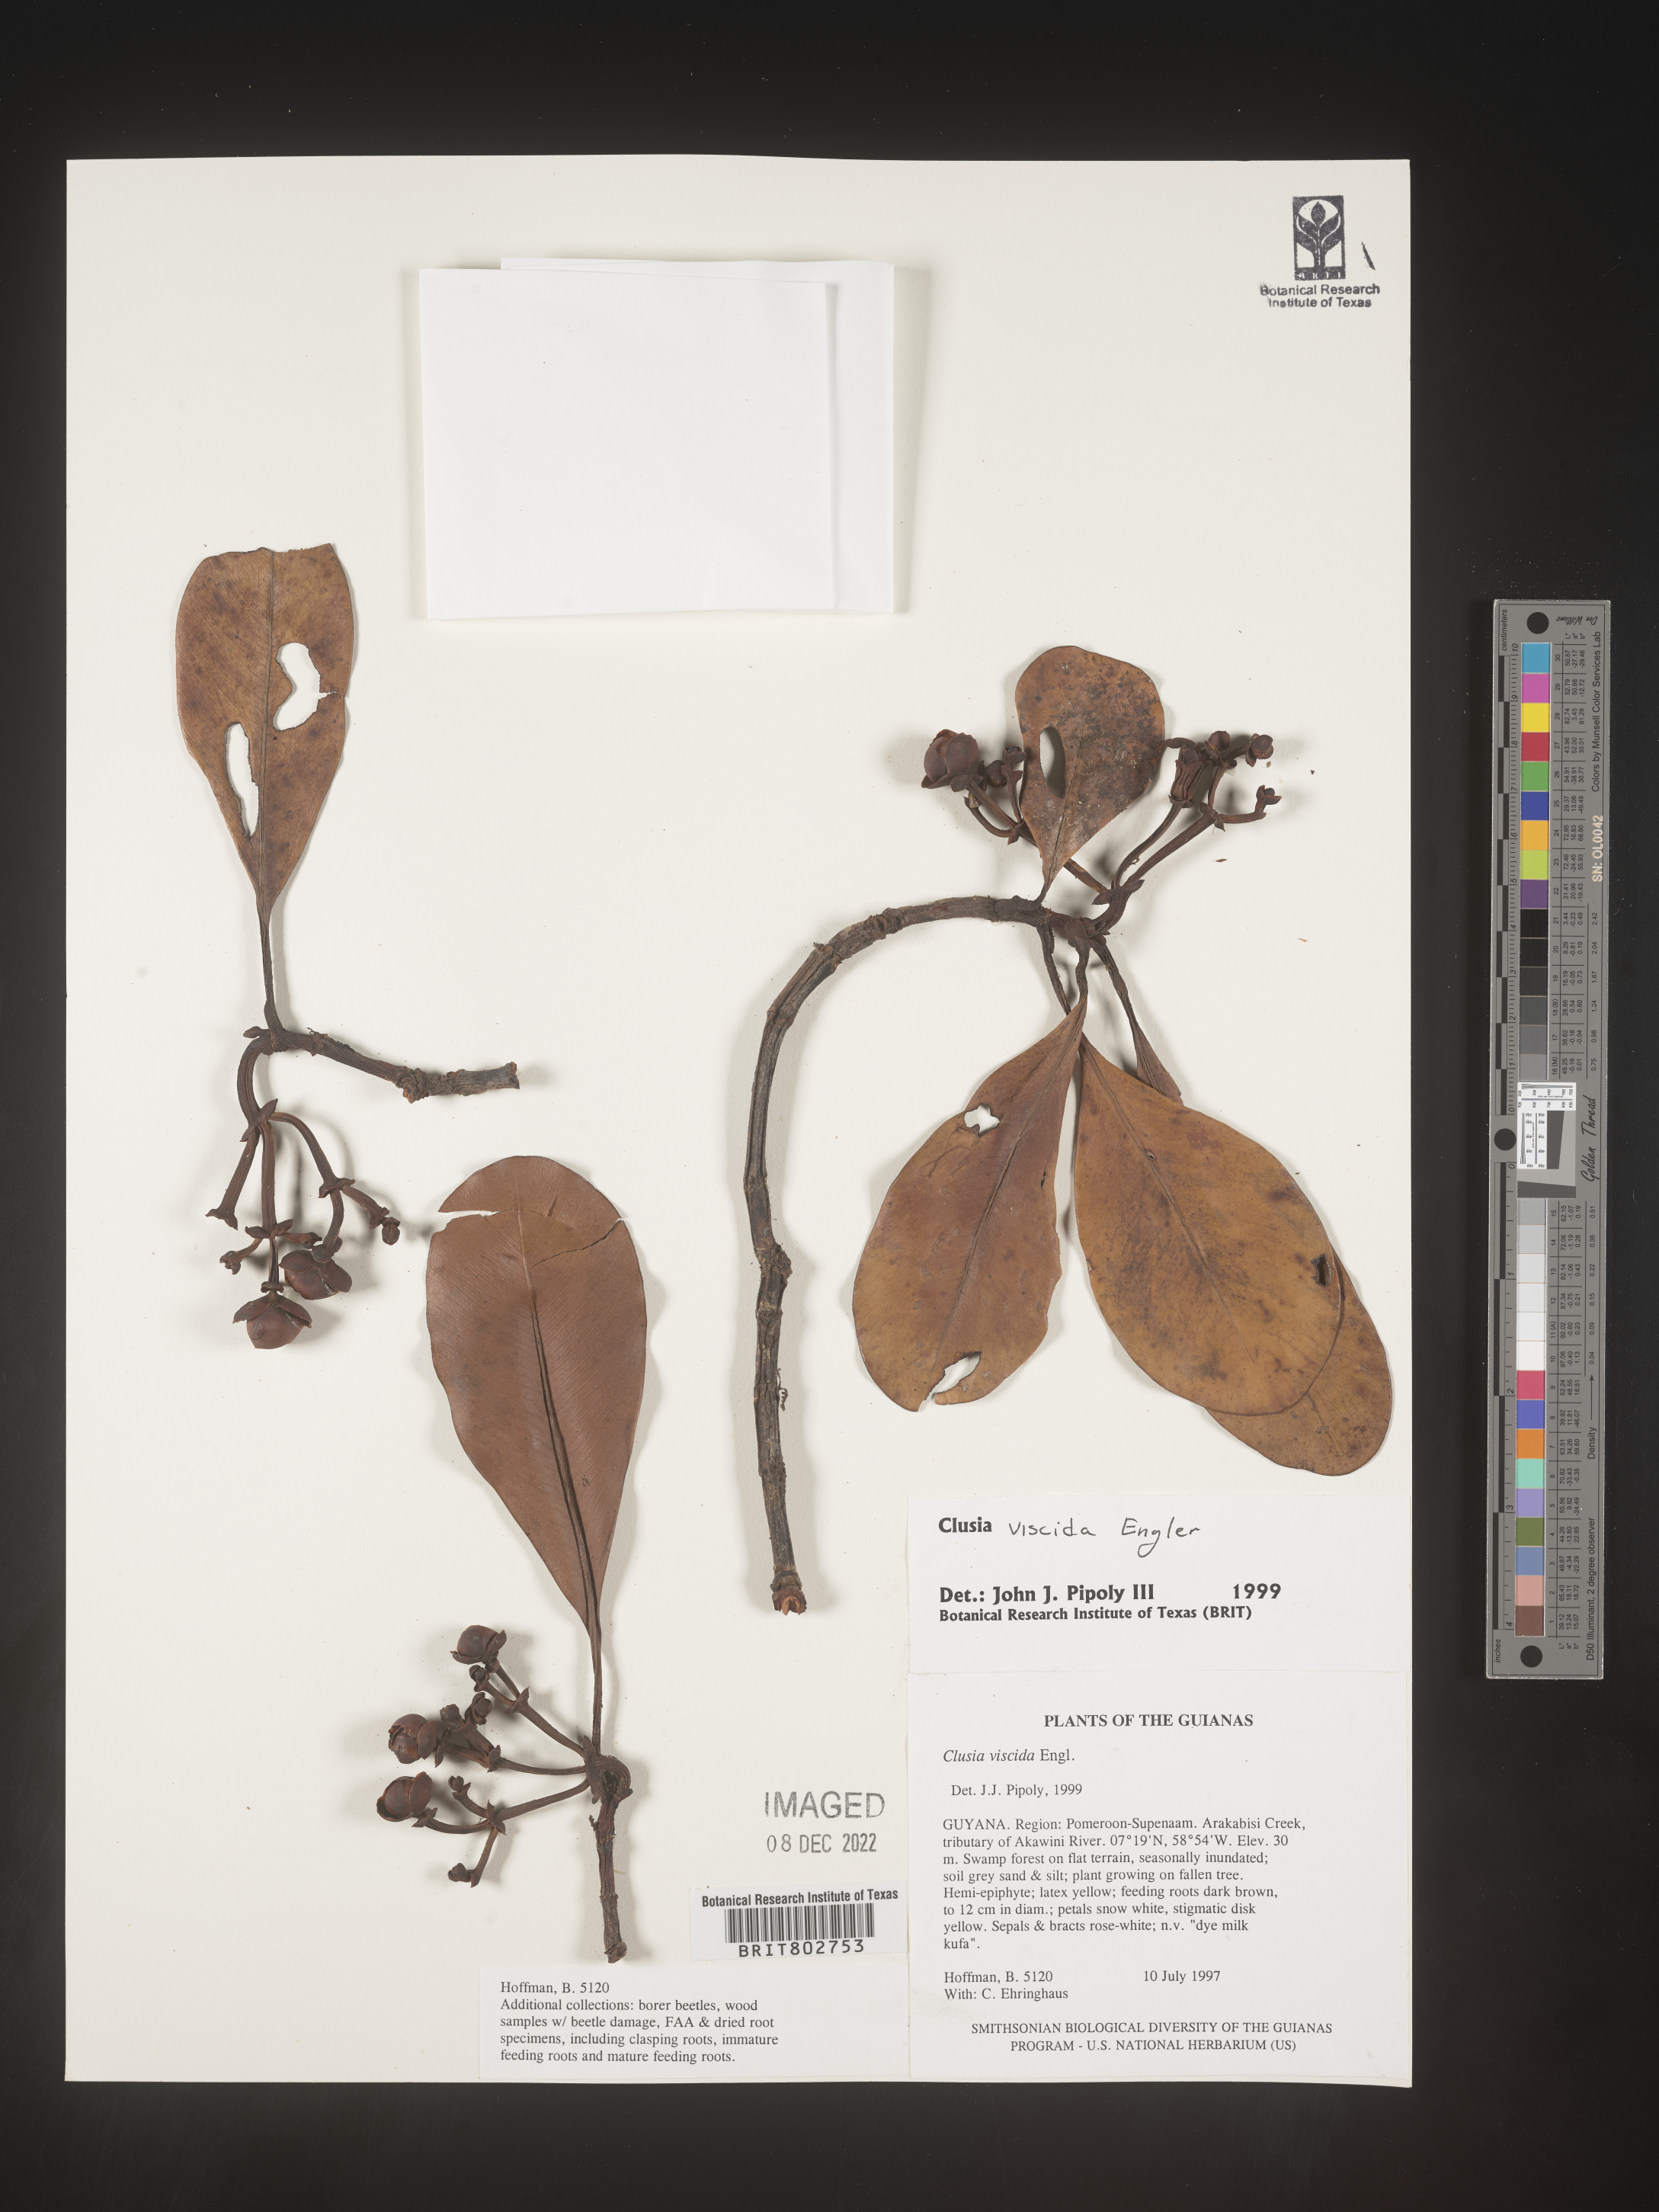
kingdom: Plantae
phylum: Tracheophyta
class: Magnoliopsida
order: Malpighiales
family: Clusiaceae
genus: Clusia
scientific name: Clusia viscida
